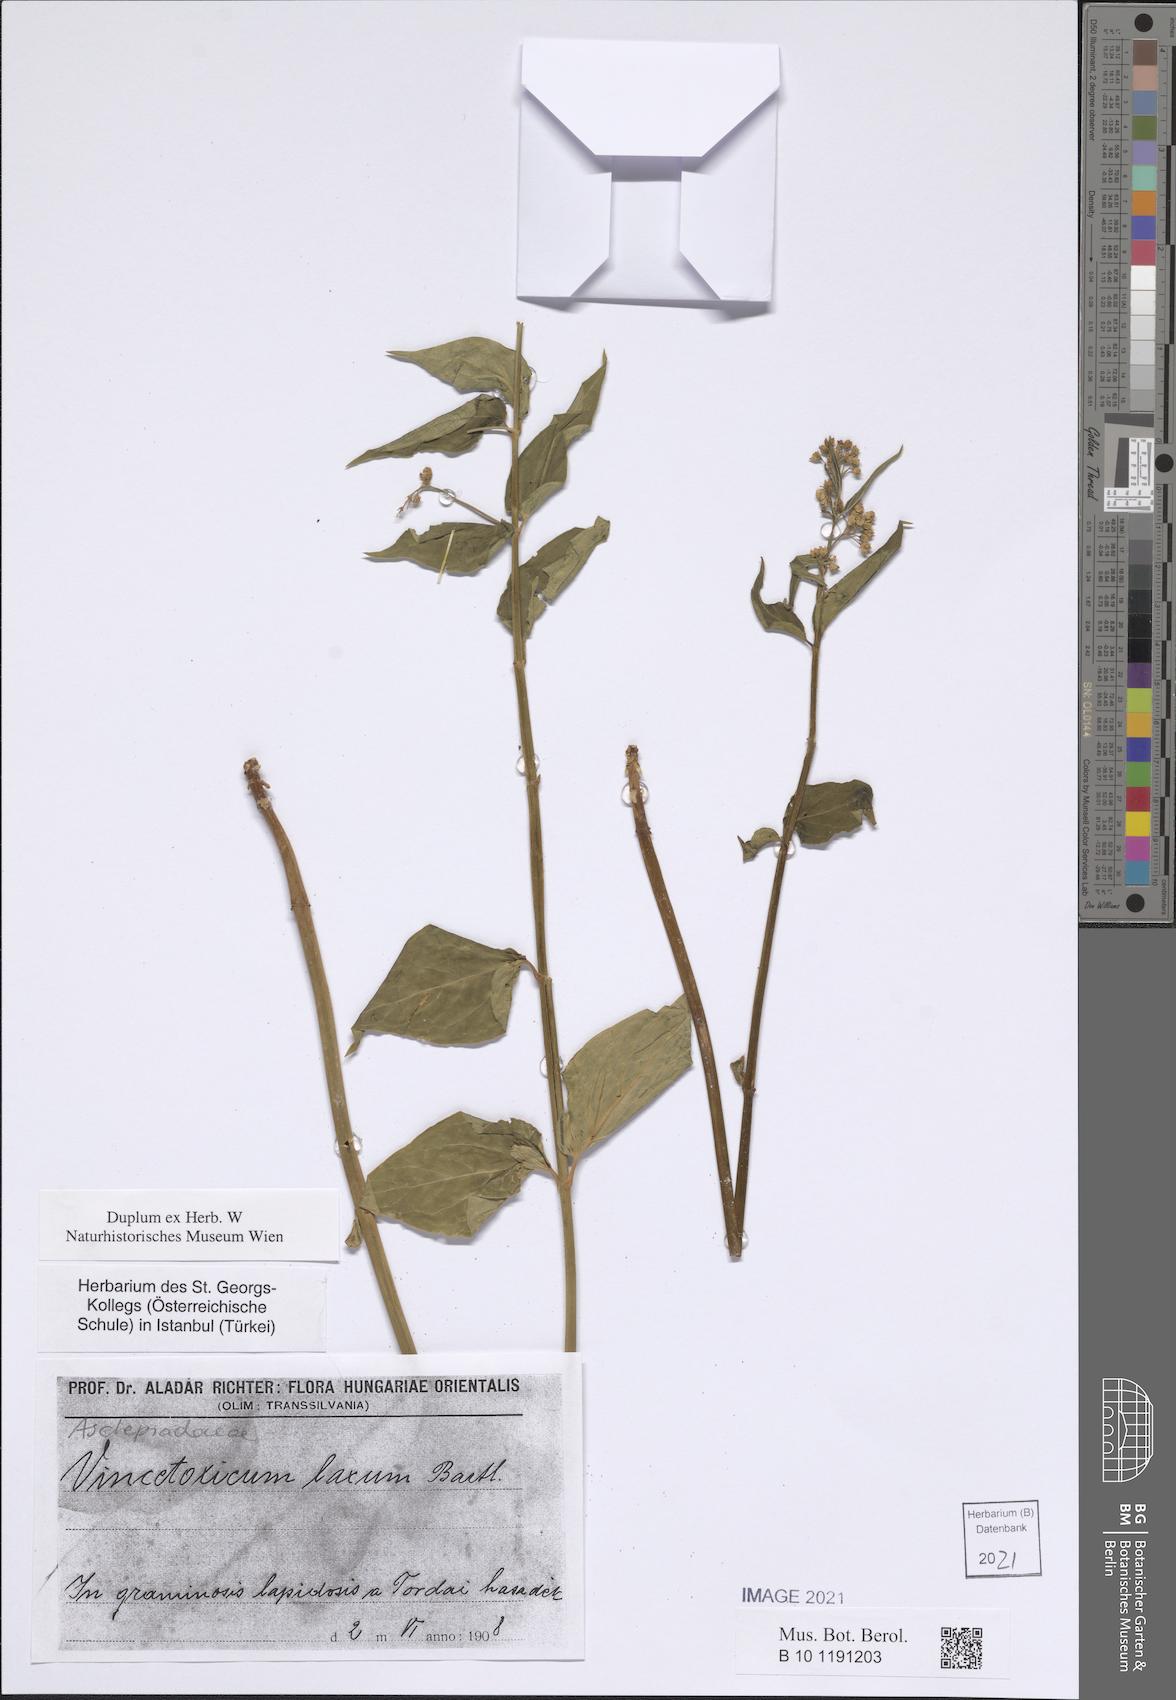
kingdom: Plantae
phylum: Tracheophyta
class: Magnoliopsida
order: Gentianales
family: Apocynaceae
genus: Vincetoxicum
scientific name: Vincetoxicum hirundinaria
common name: White swallowwort
